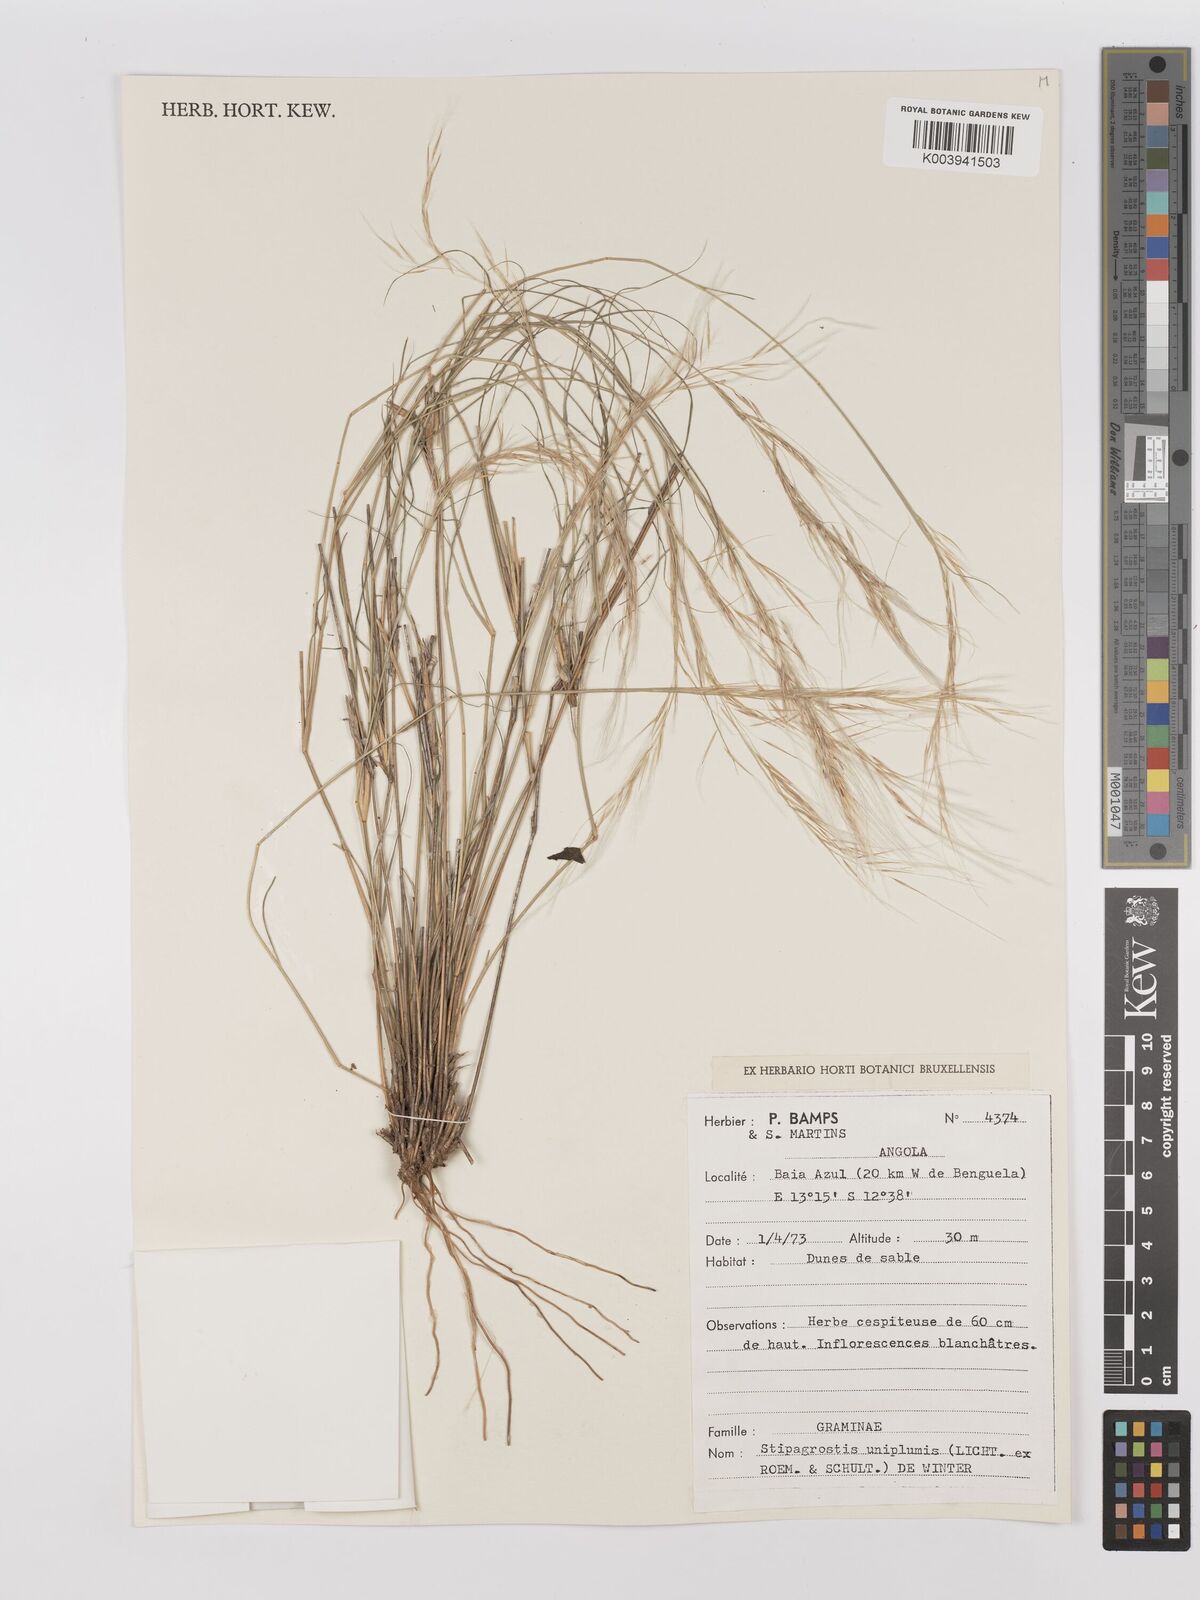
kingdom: Plantae
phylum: Tracheophyta
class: Liliopsida
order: Poales
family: Poaceae
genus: Stipagrostis
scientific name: Stipagrostis uniplumis
